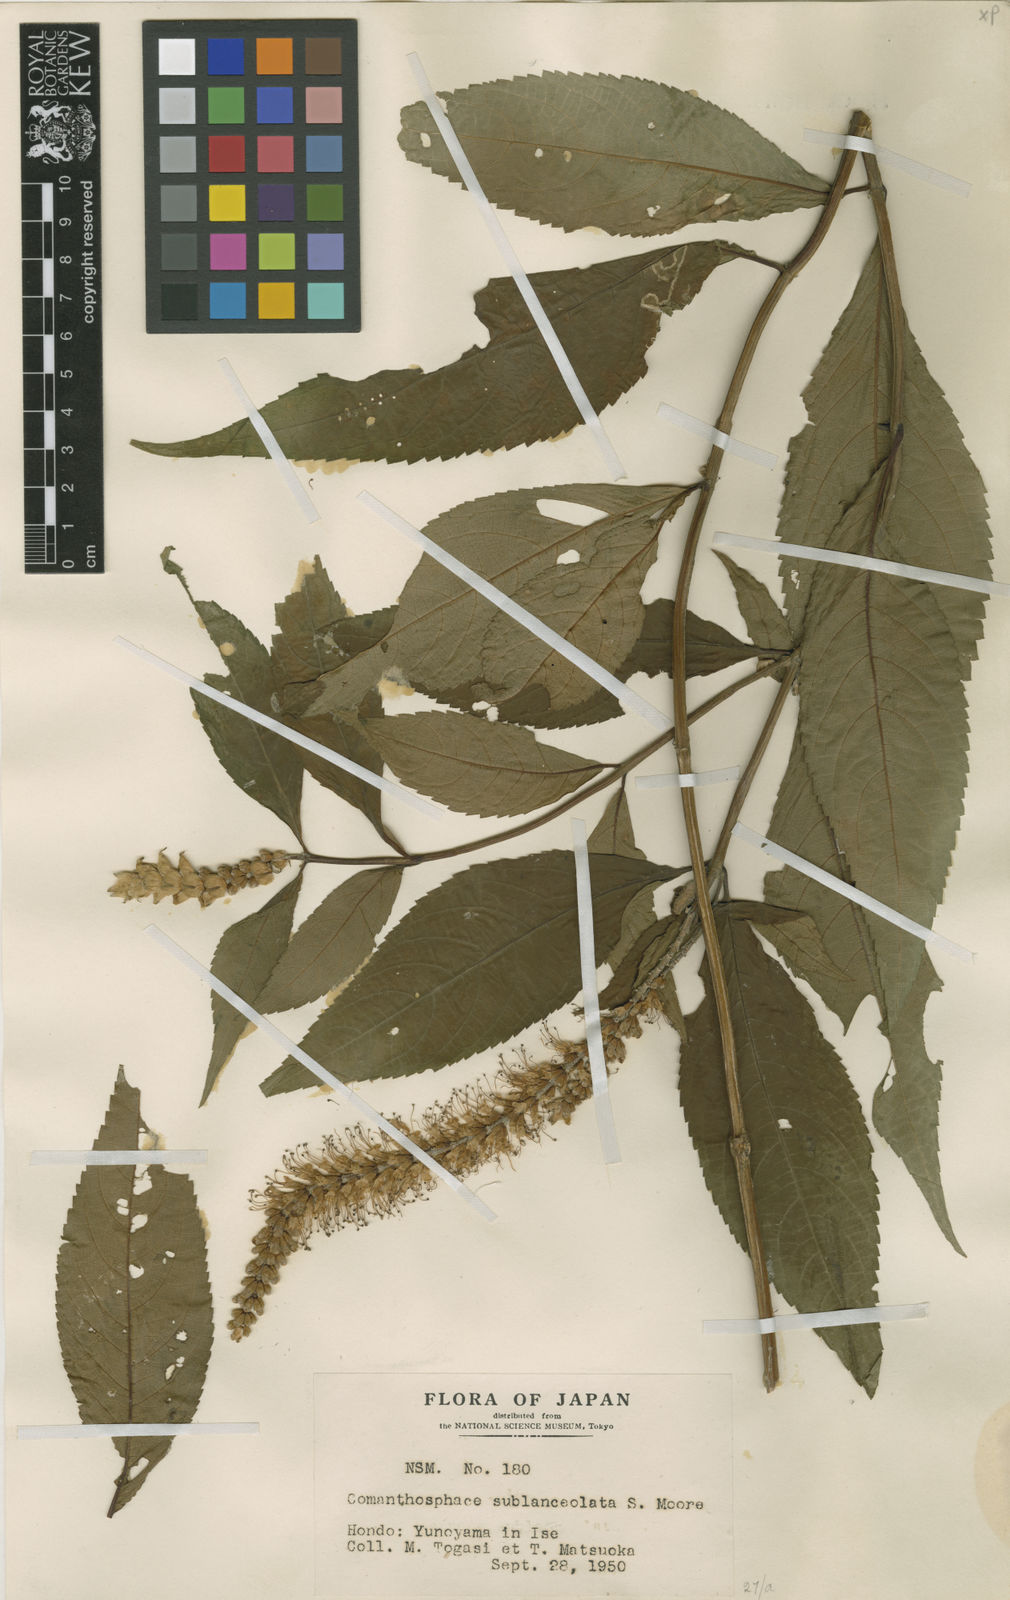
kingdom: Plantae
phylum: Tracheophyta
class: Magnoliopsida
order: Lamiales
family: Lamiaceae
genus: Comanthosphace
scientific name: Comanthosphace japonica
